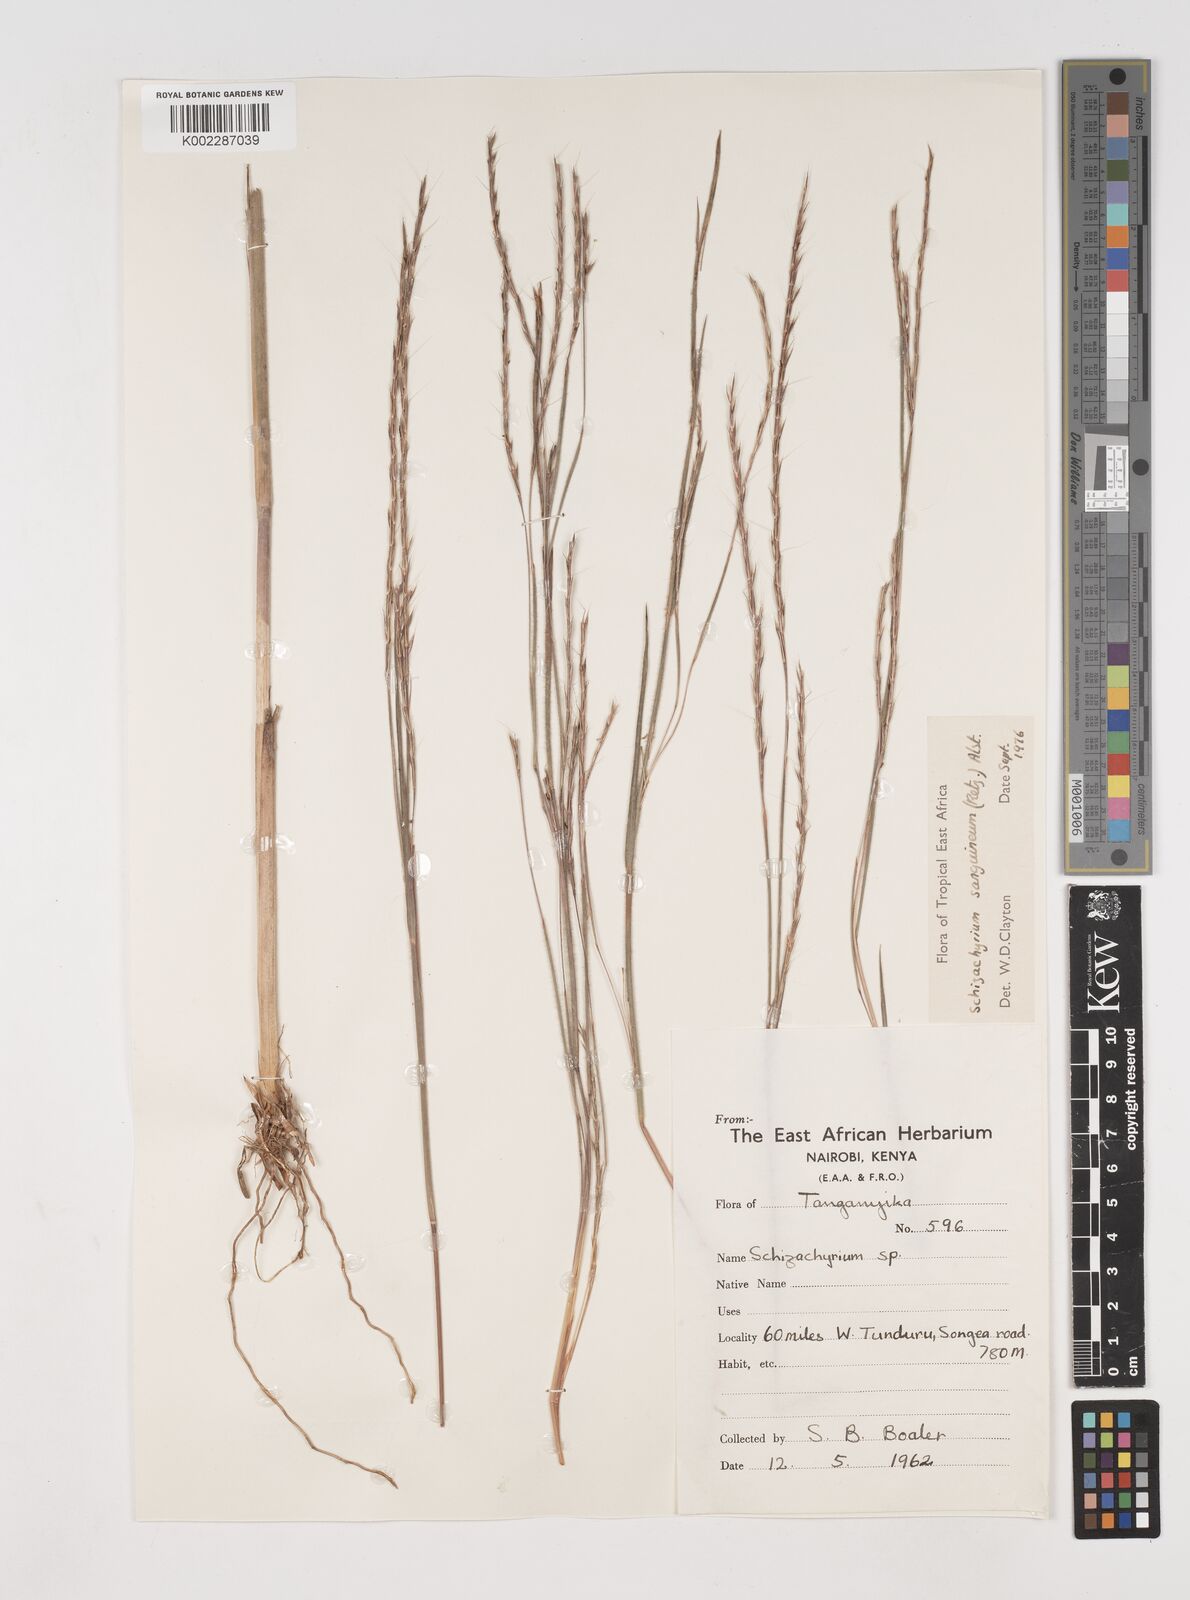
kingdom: Plantae
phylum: Tracheophyta
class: Liliopsida
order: Poales
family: Poaceae
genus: Schizachyrium
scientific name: Schizachyrium sanguineum
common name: Crimson bluestem
